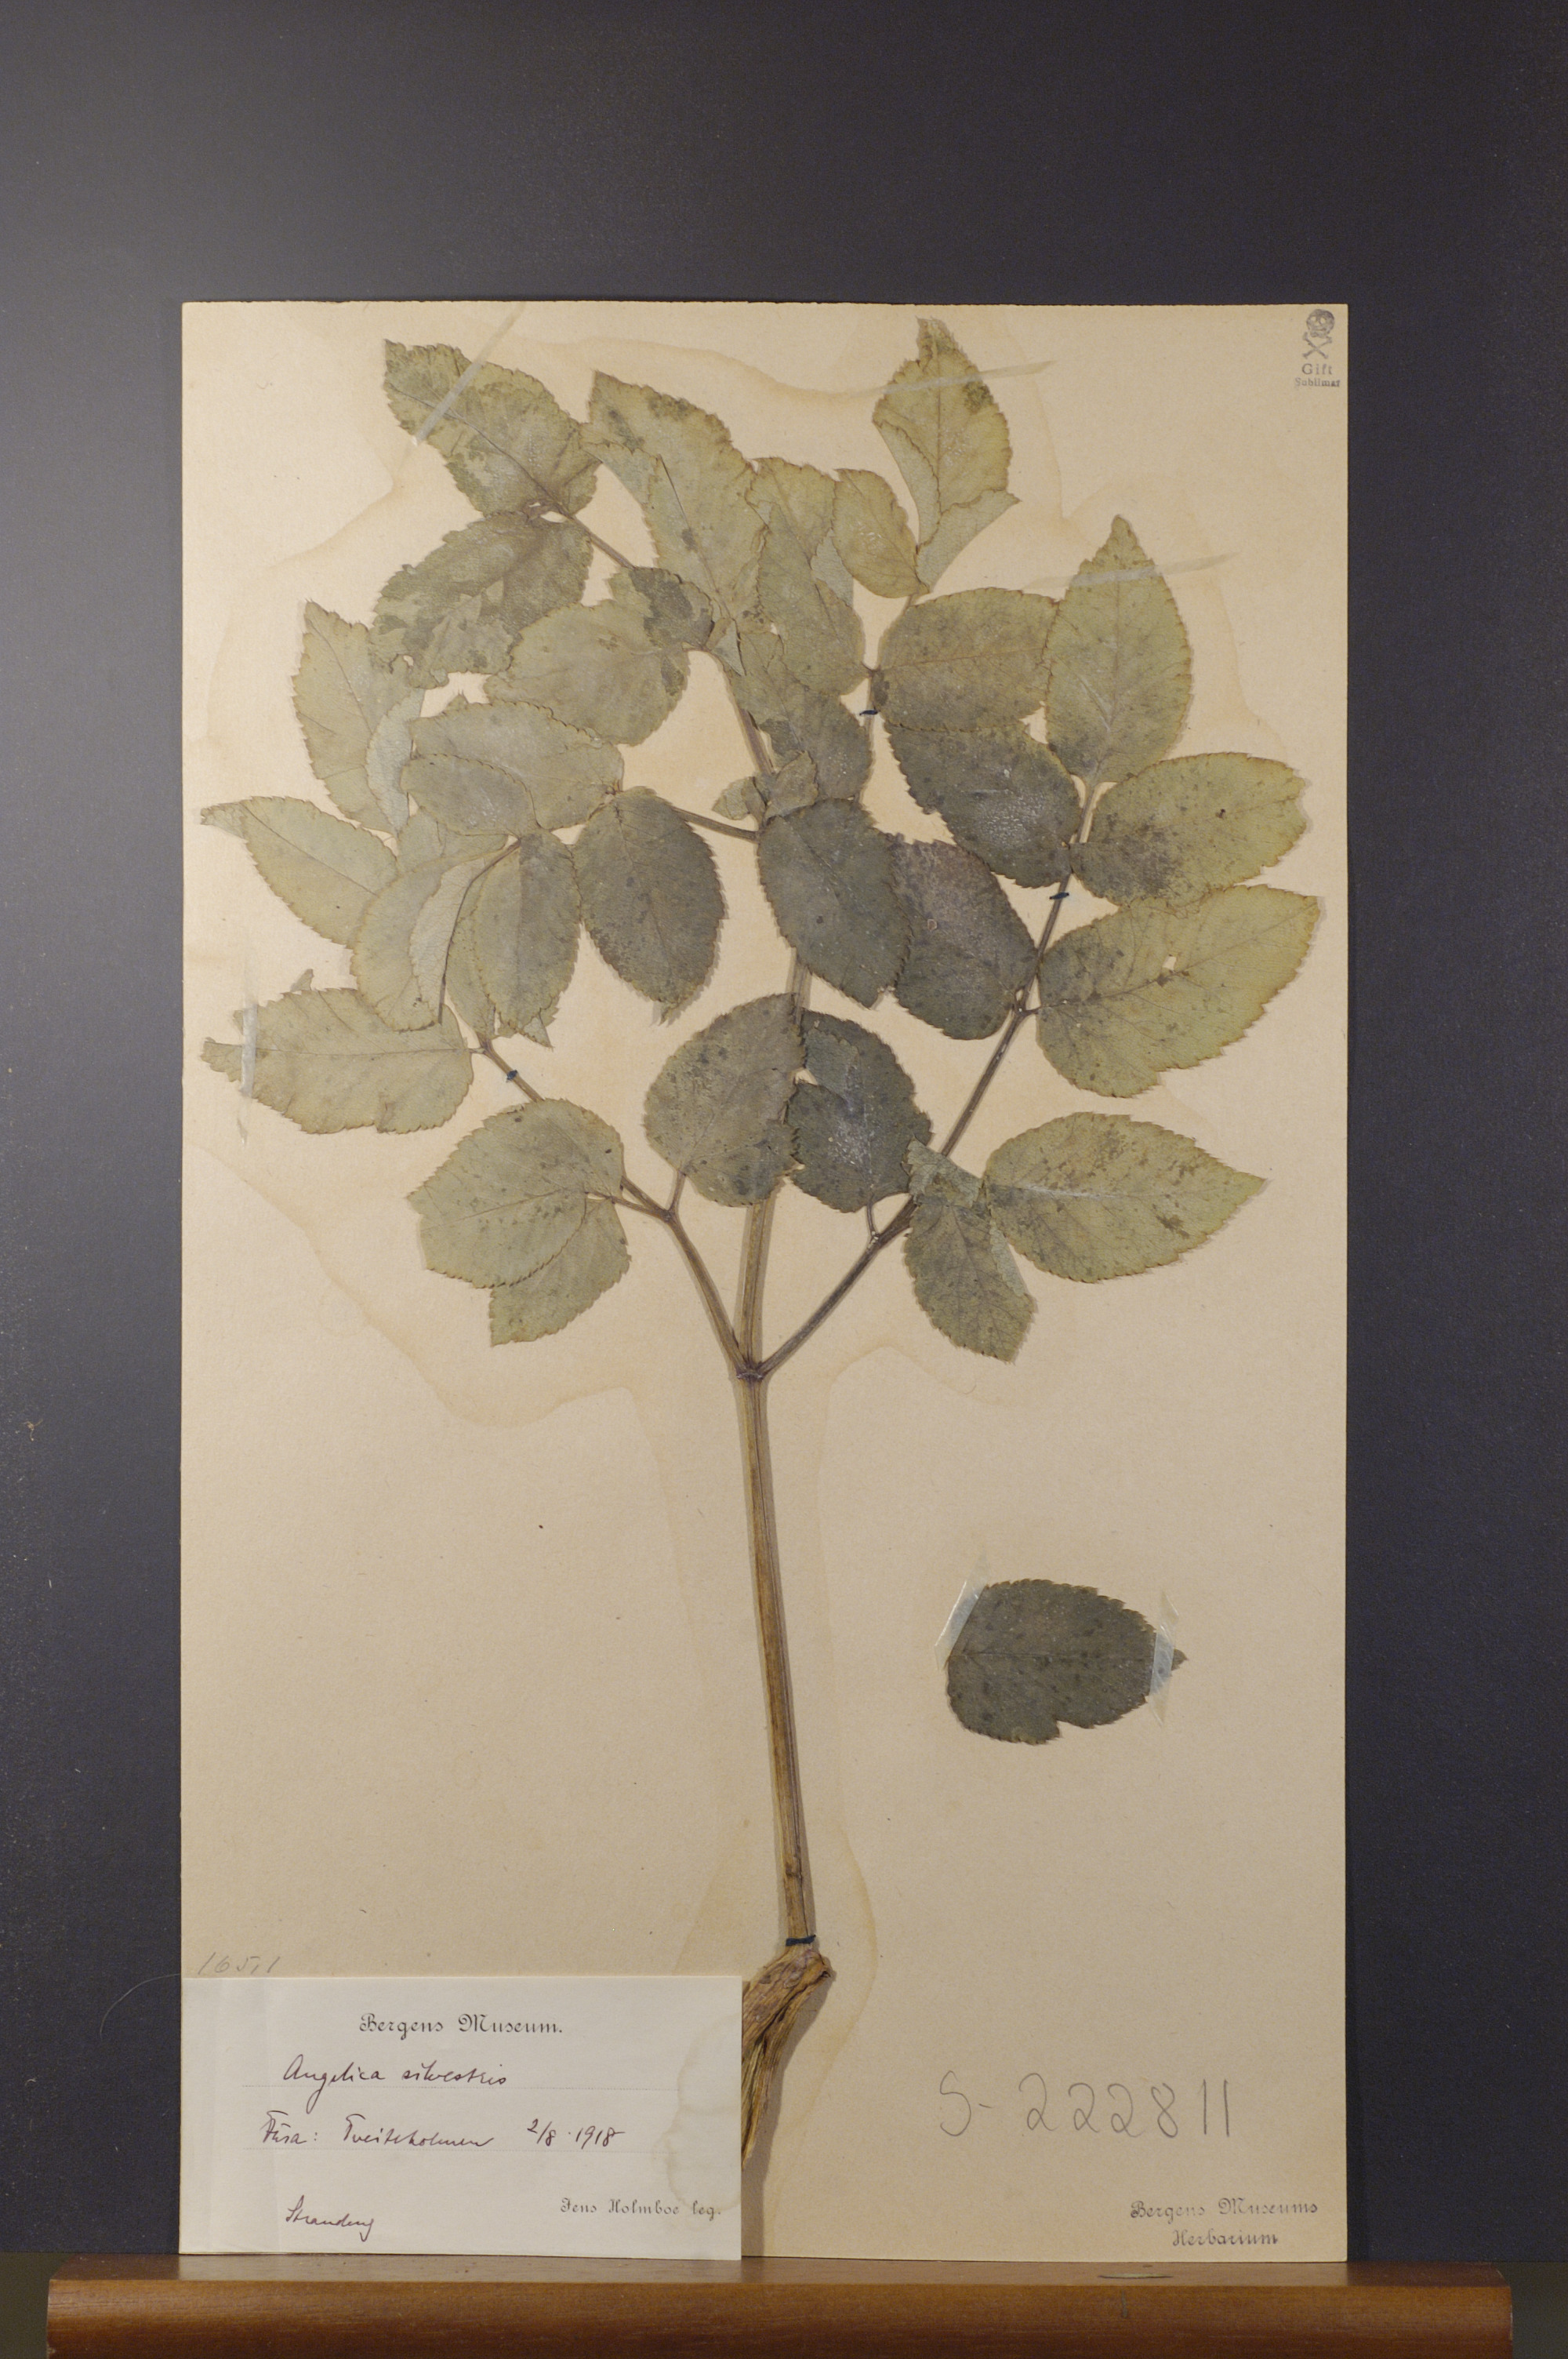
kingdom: Plantae
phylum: Tracheophyta
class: Magnoliopsida
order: Apiales
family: Apiaceae
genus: Angelica
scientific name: Angelica sylvestris
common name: Wild angelica
